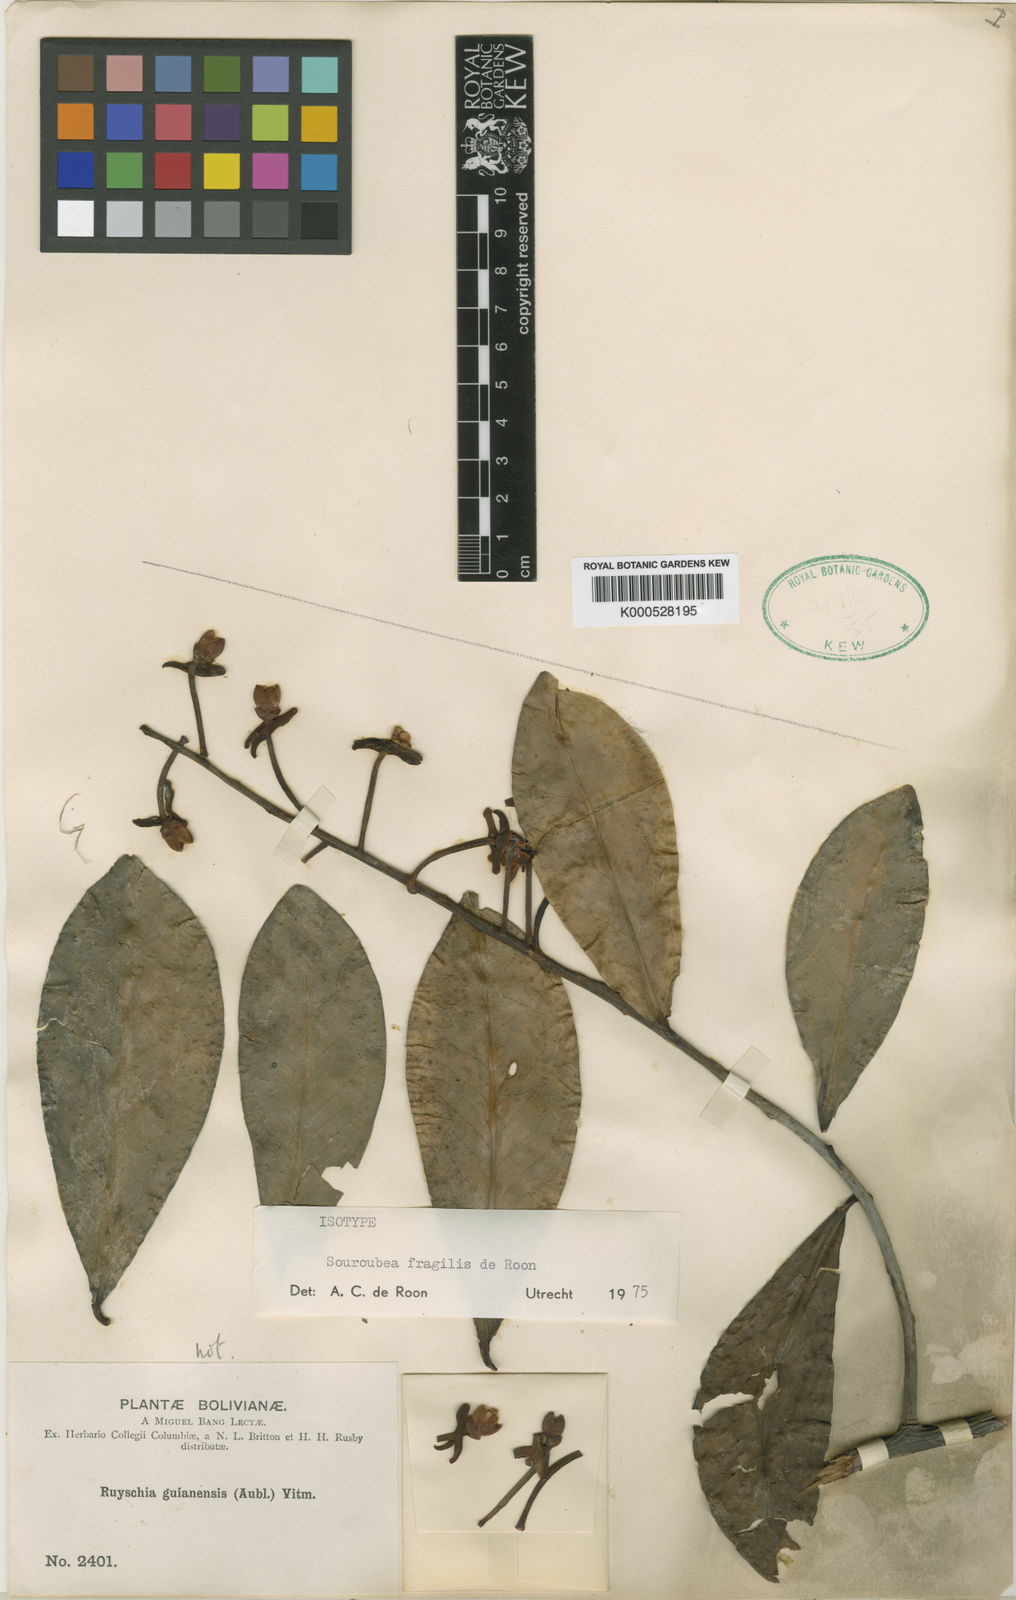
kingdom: Plantae
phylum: Tracheophyta
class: Magnoliopsida
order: Ericales
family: Marcgraviaceae
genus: Souroubea
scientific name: Souroubea fragilis
